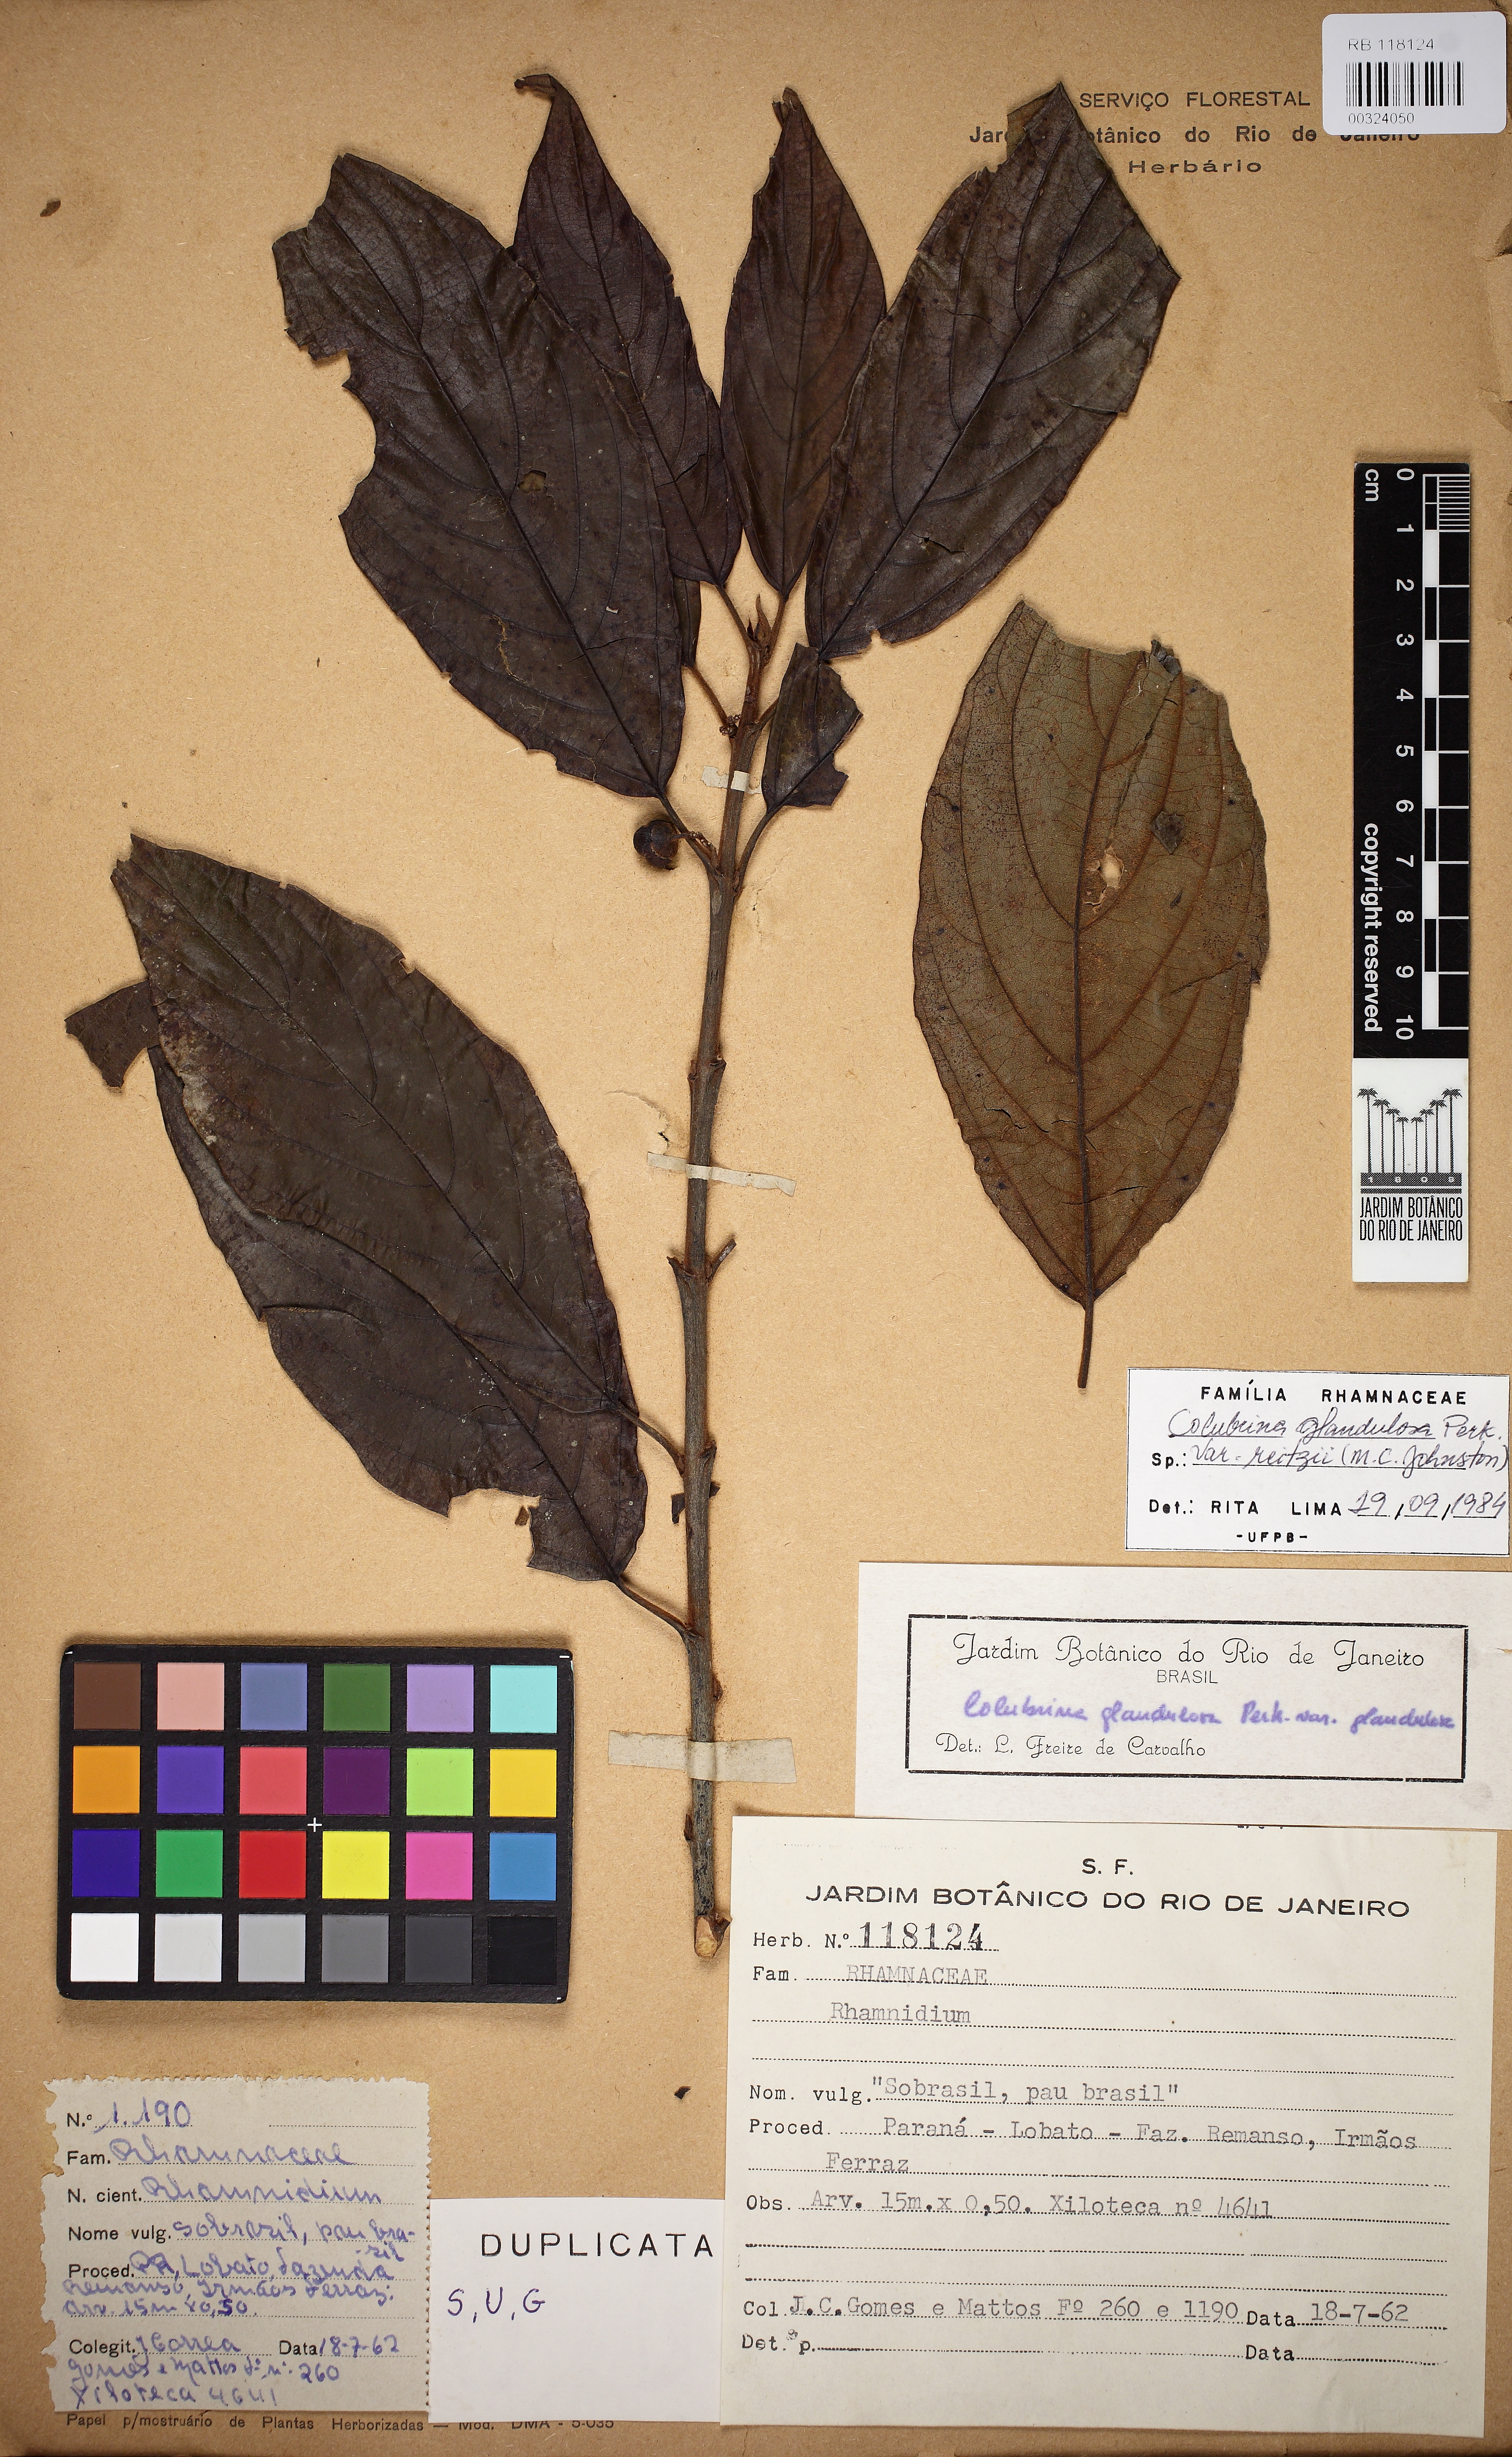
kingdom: Plantae
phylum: Tracheophyta
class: Magnoliopsida
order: Rosales
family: Rhamnaceae
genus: Colubrina
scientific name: Colubrina glandulosa
